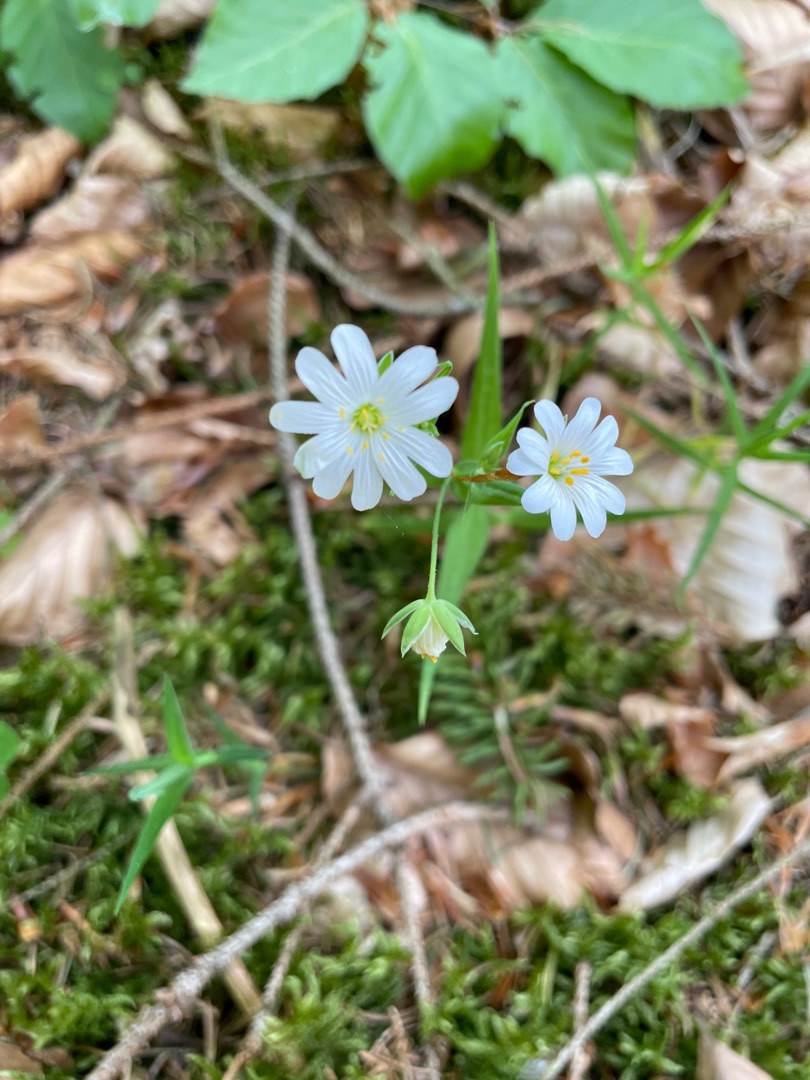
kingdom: Plantae
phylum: Tracheophyta
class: Magnoliopsida
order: Caryophyllales
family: Caryophyllaceae
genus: Rabelera
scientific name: Rabelera holostea
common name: Stor fladstjerne
